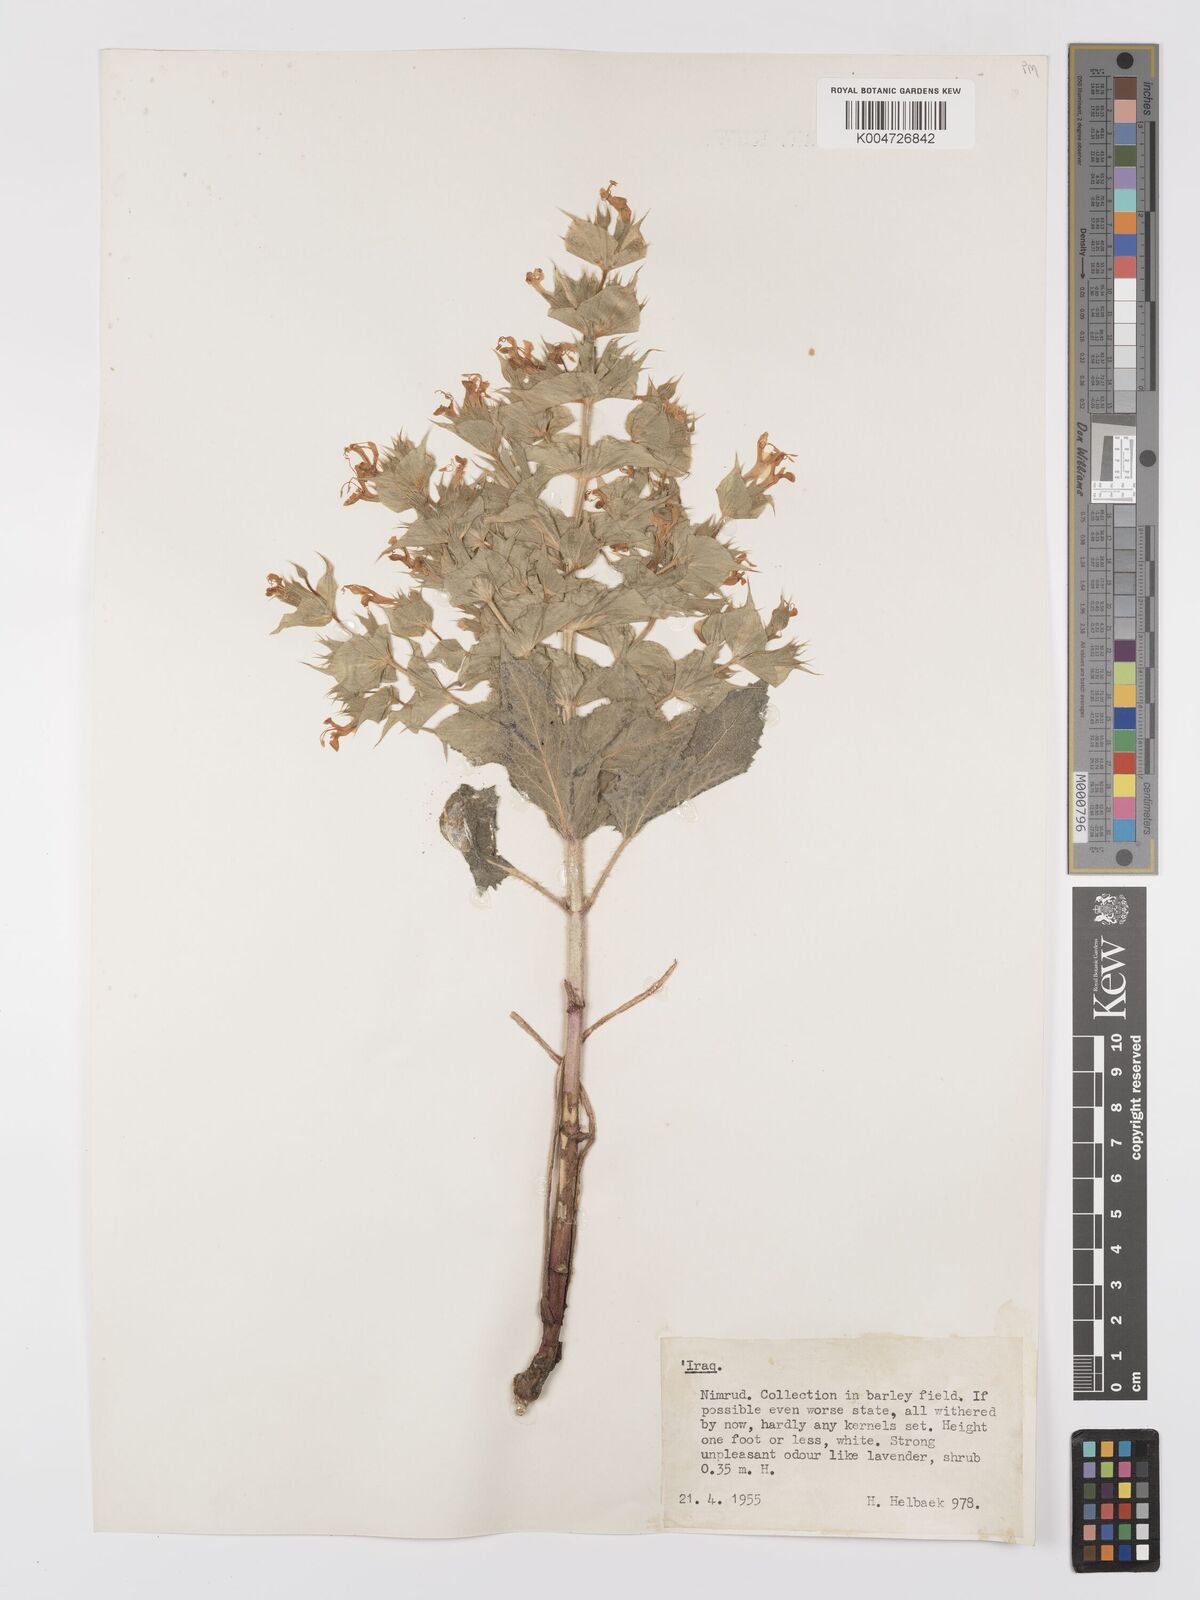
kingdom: Plantae
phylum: Tracheophyta
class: Magnoliopsida
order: Lamiales
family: Lamiaceae
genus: Salvia
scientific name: Salvia
